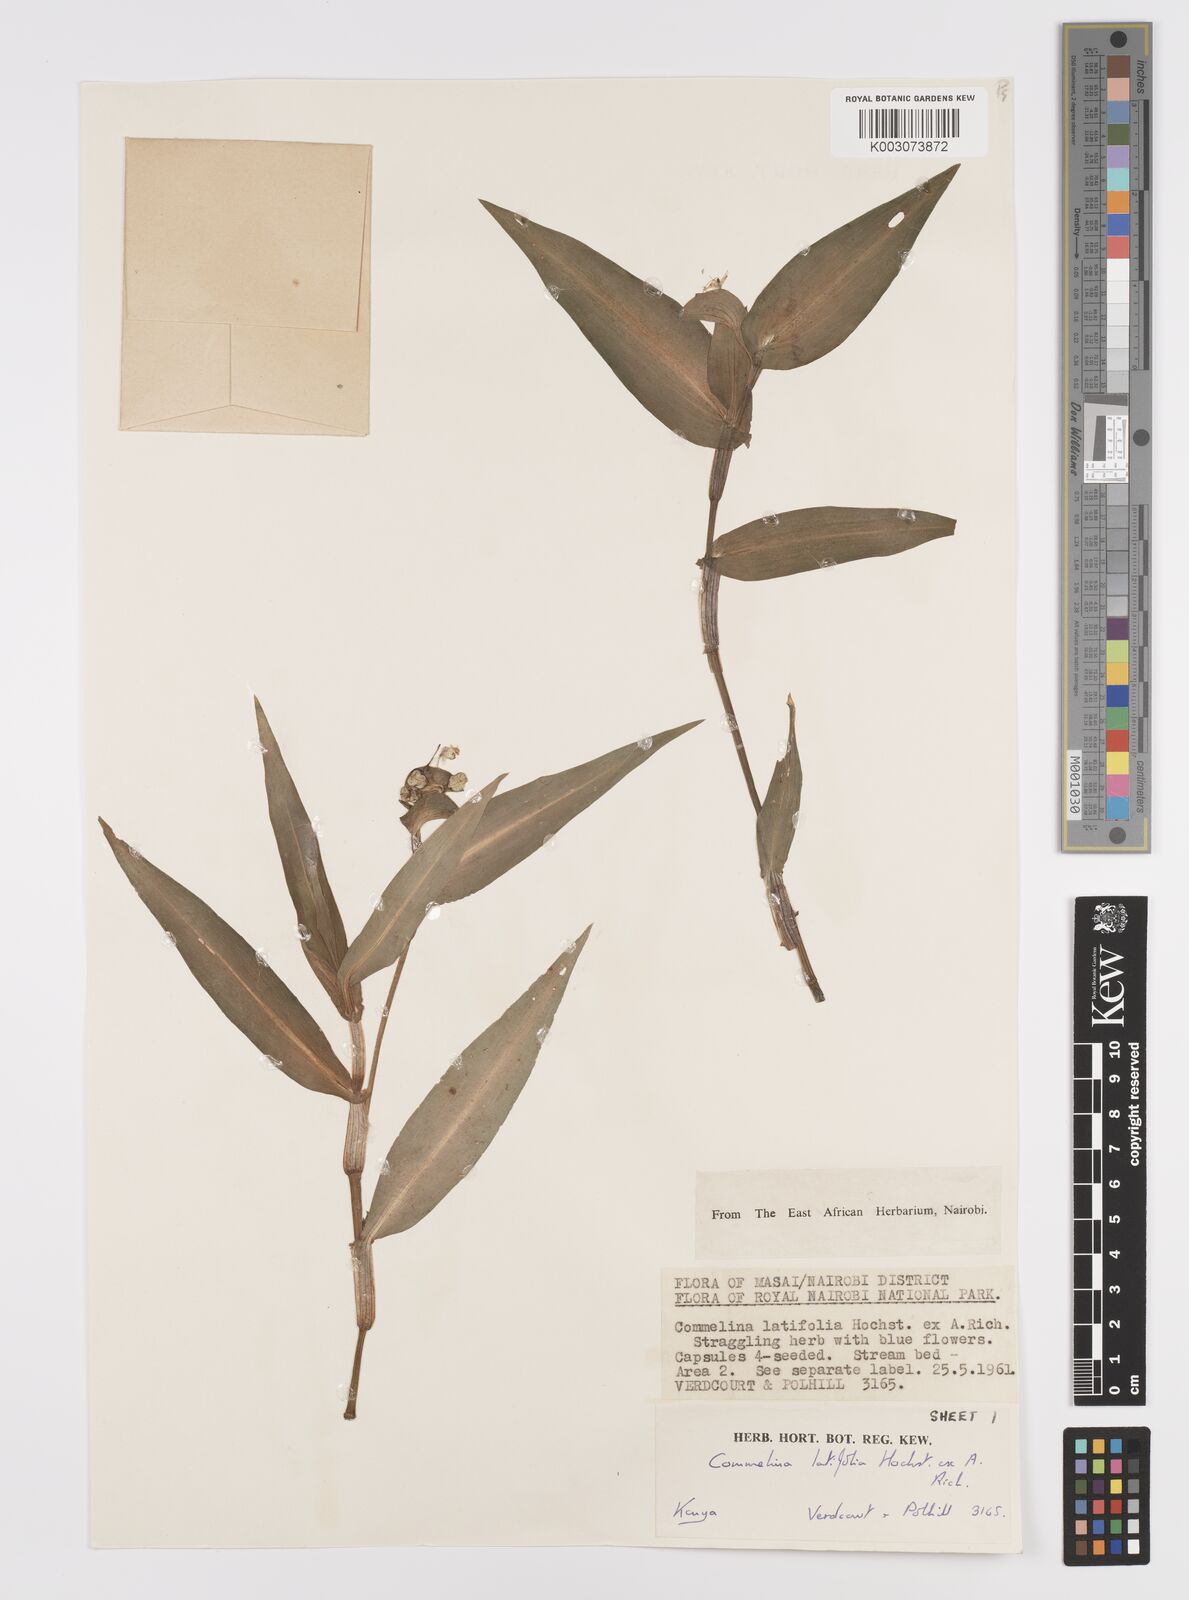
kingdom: Plantae
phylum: Tracheophyta
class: Liliopsida
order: Commelinales
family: Commelinaceae
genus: Commelina
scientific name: Commelina latifolia
